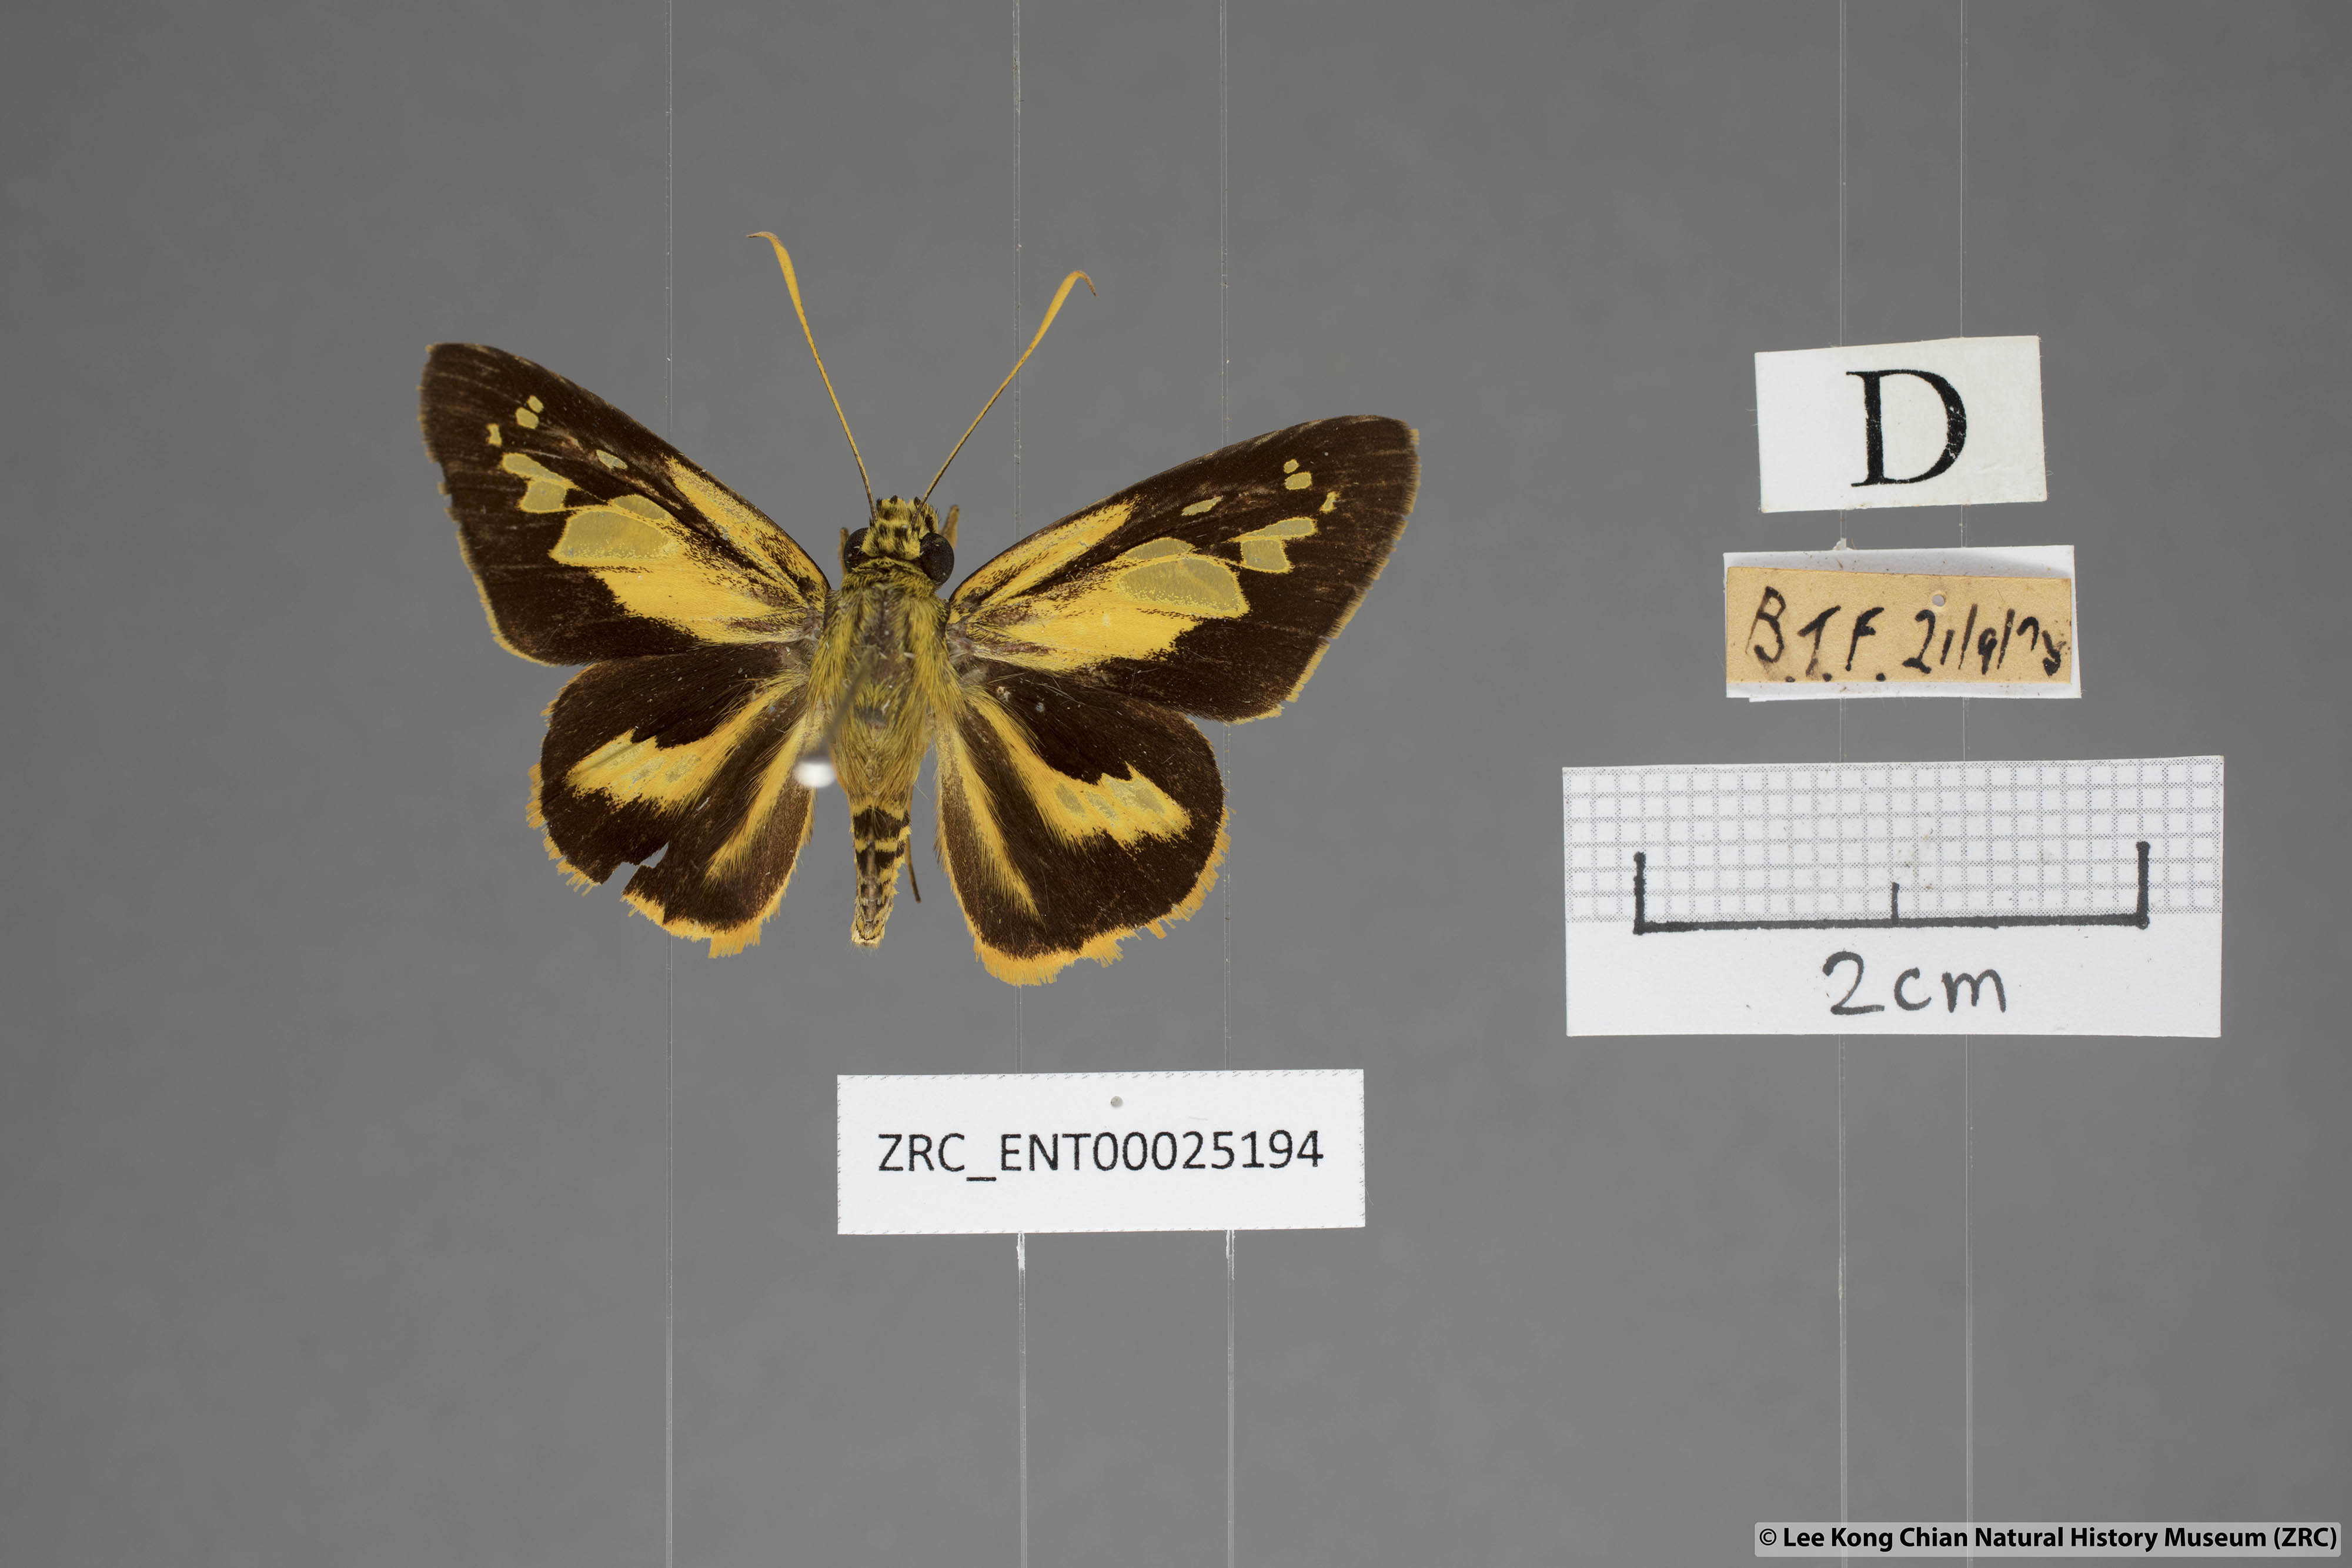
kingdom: Animalia
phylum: Arthropoda
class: Insecta
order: Lepidoptera
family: Hesperiidae
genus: Pyroneura
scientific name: Pyroneura
